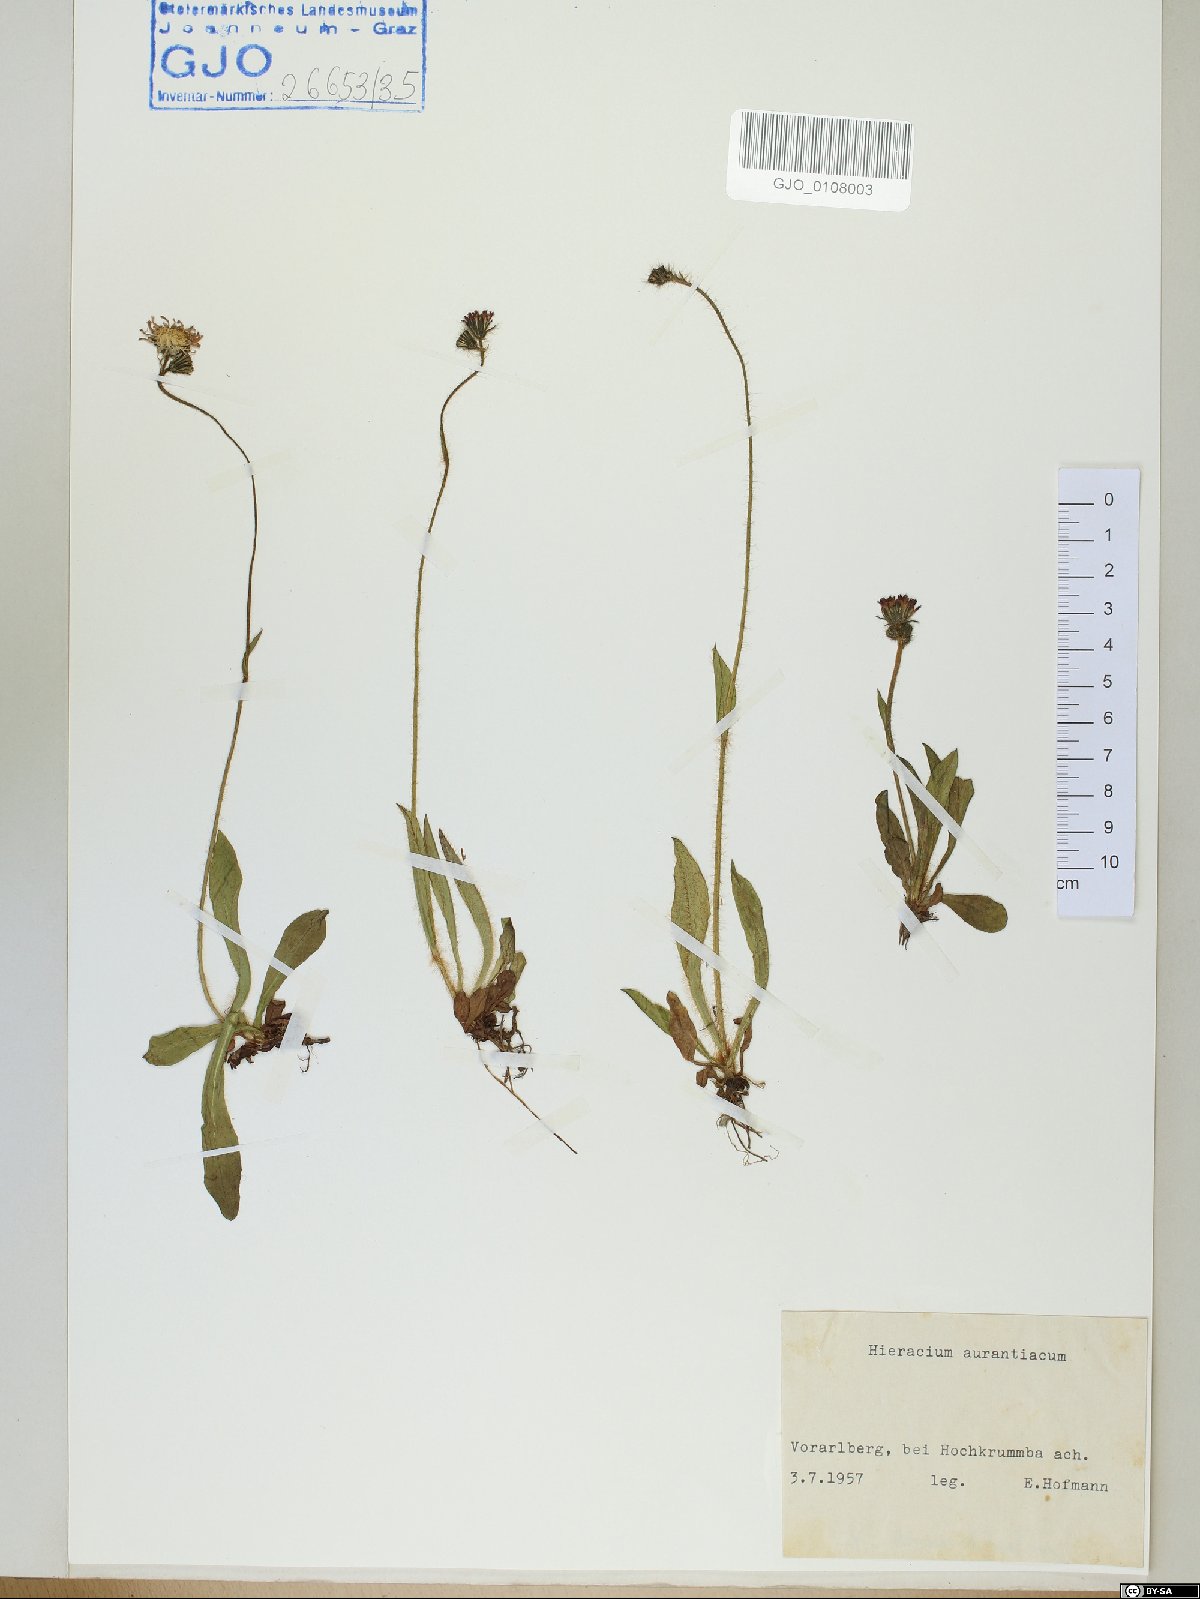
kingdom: Plantae
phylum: Tracheophyta
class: Magnoliopsida
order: Asterales
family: Asteraceae
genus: Pilosella
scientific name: Pilosella aurantiaca
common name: Fox-and-cubs
